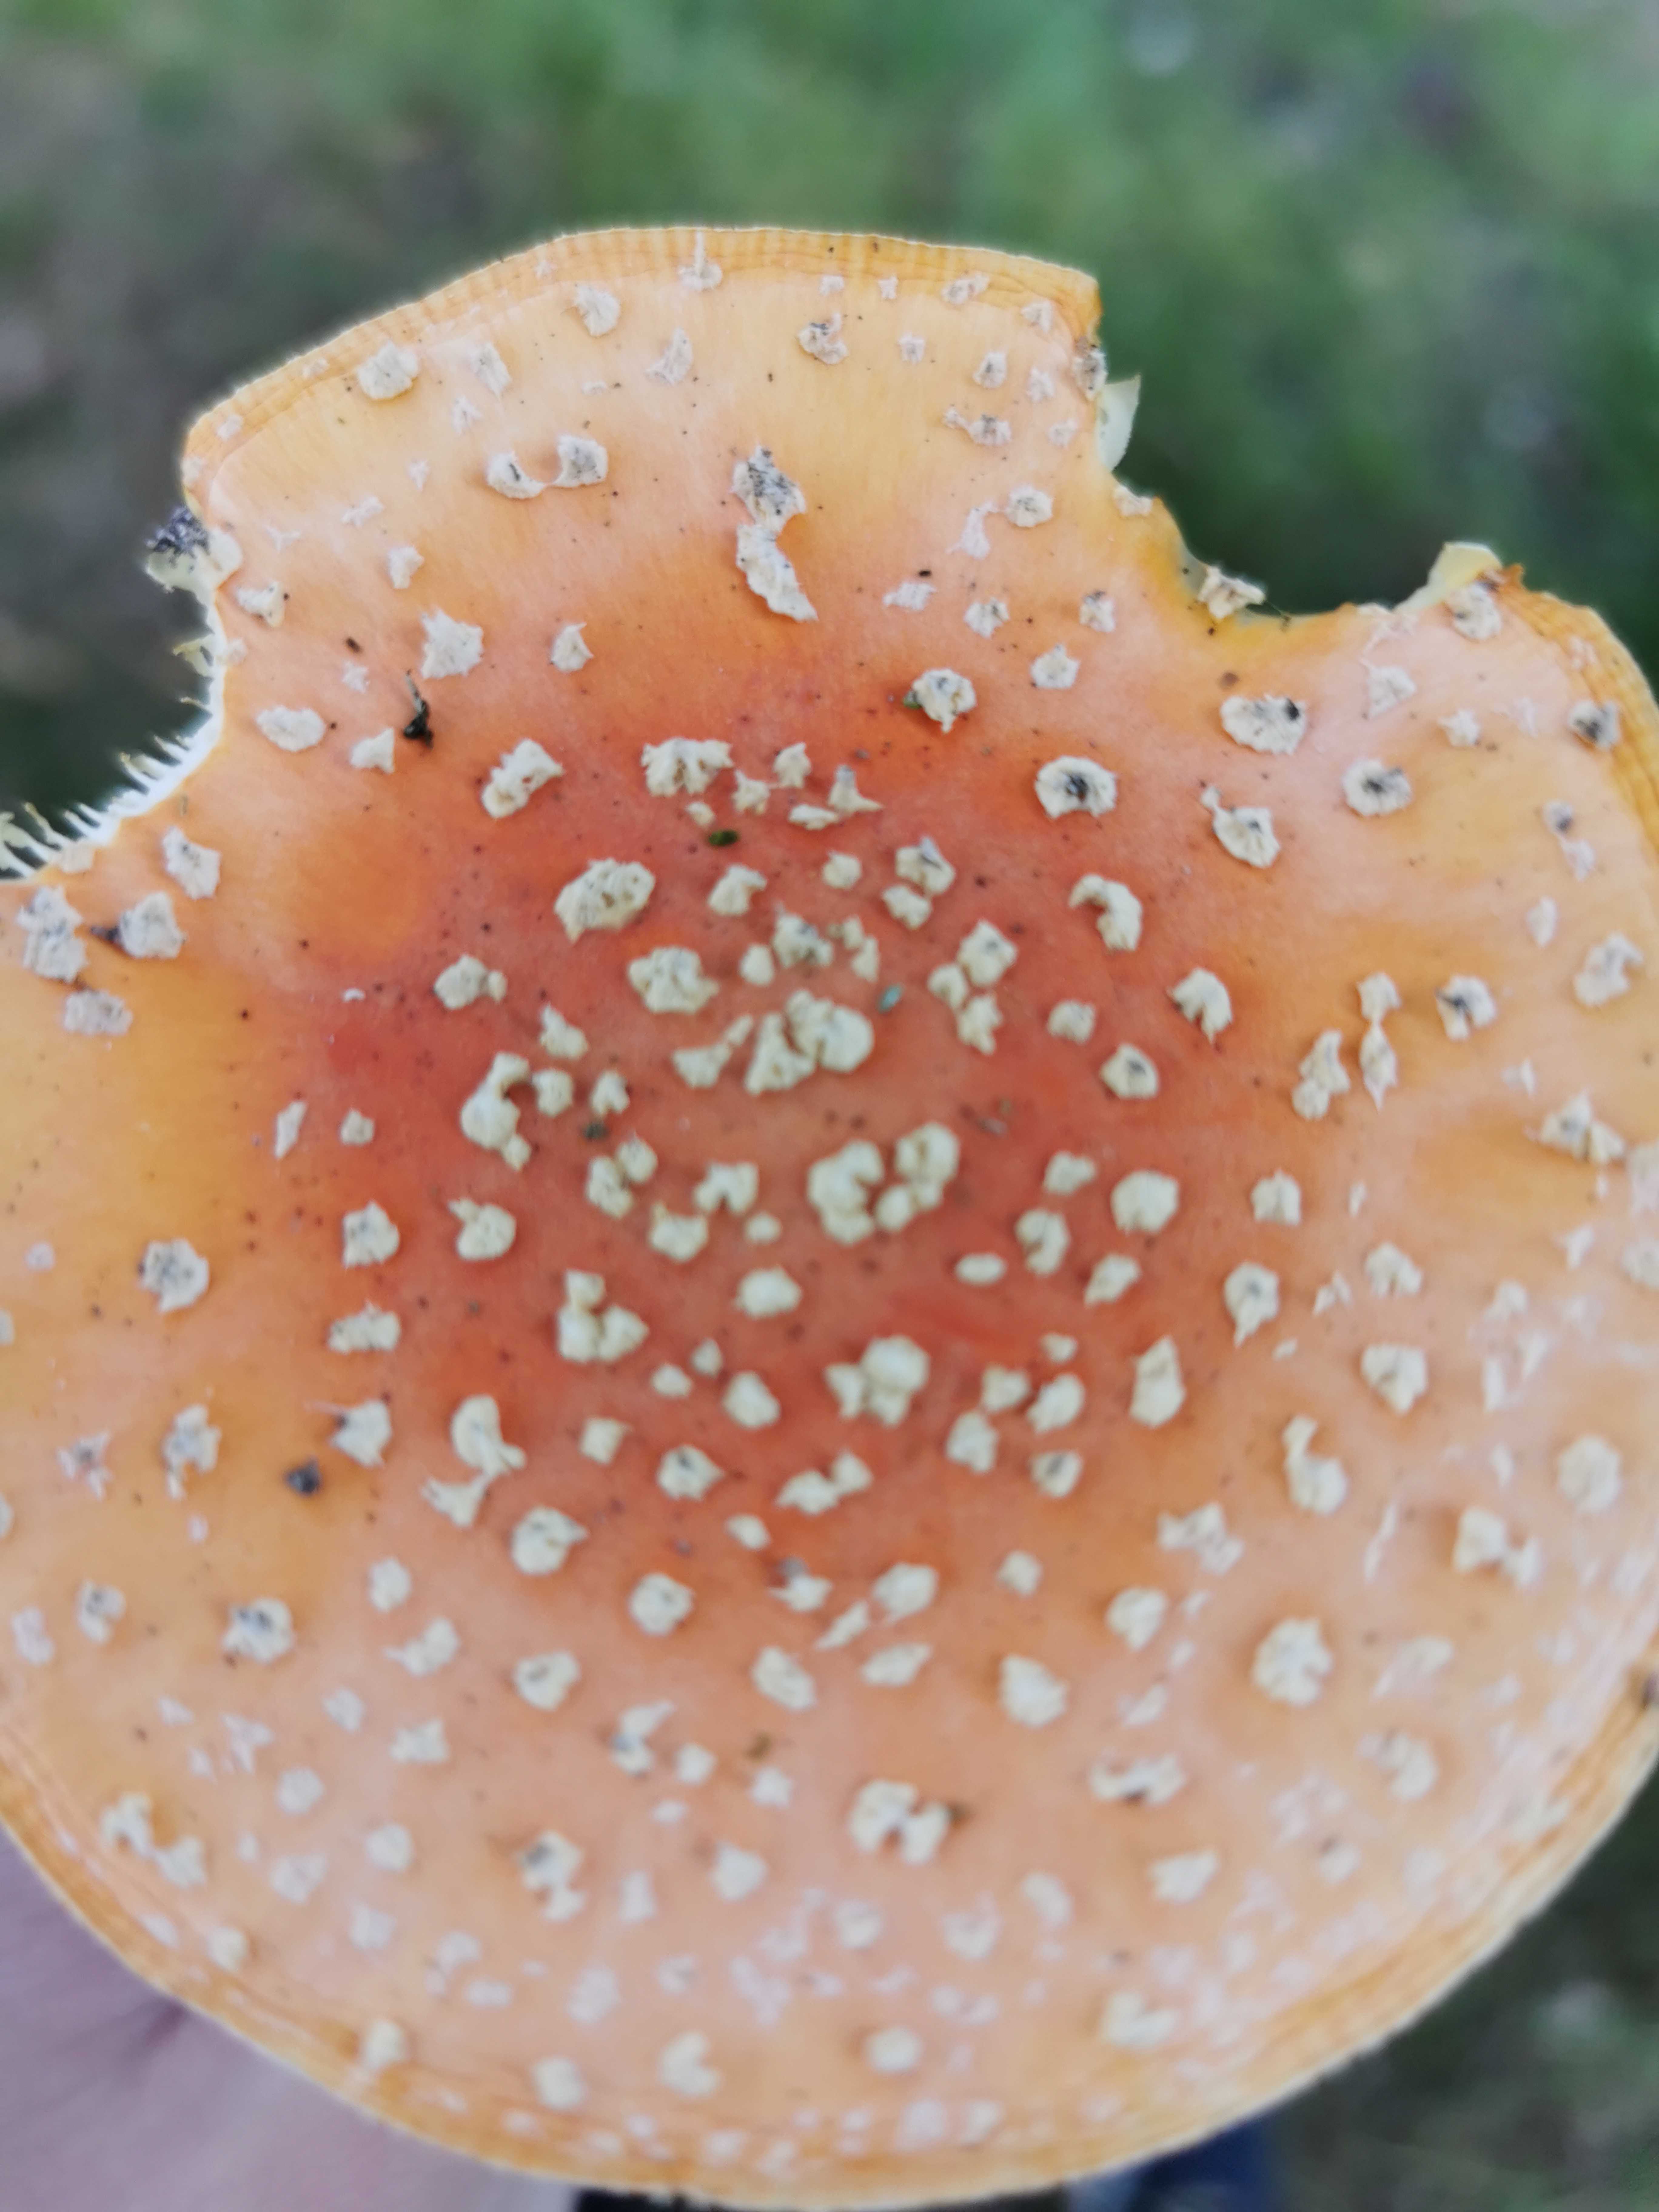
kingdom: Fungi
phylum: Basidiomycota
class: Agaricomycetes
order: Agaricales
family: Amanitaceae
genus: Amanita
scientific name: Amanita muscaria
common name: rød fluesvamp
